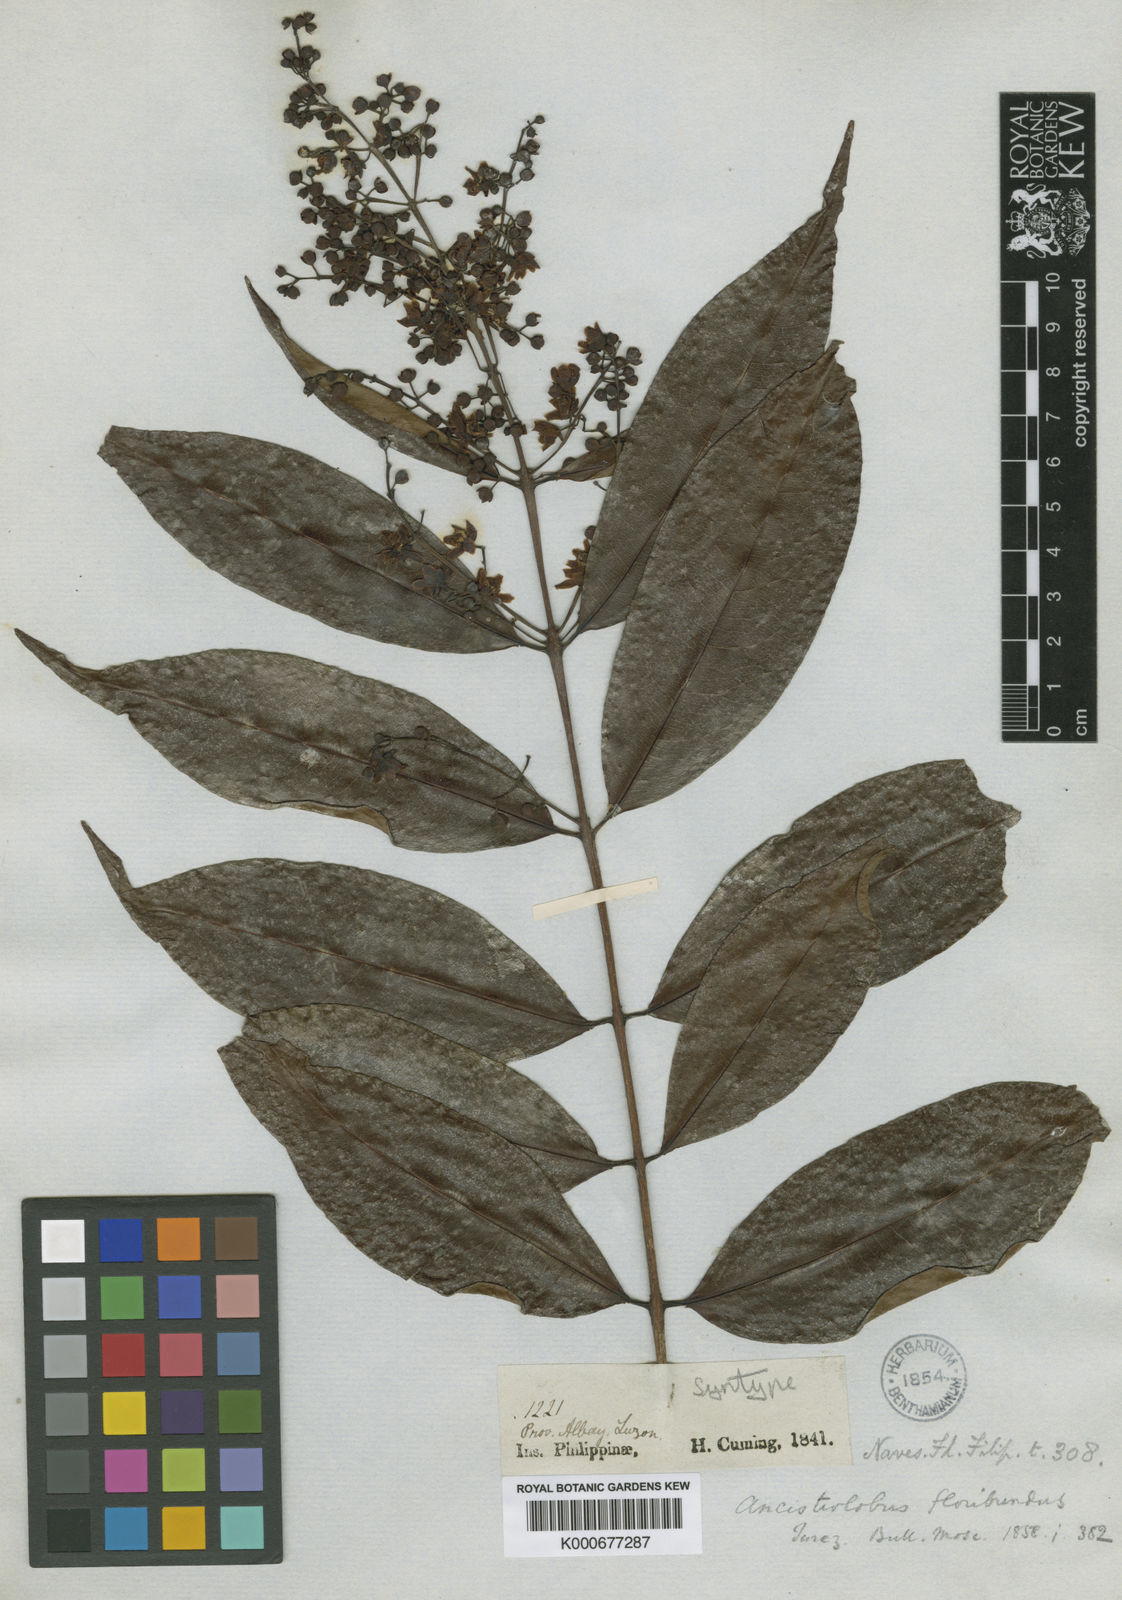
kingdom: Plantae
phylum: Tracheophyta
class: Magnoliopsida
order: Malpighiales
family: Hypericaceae
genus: Cratoxylum
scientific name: Cratoxylum sumatranum
